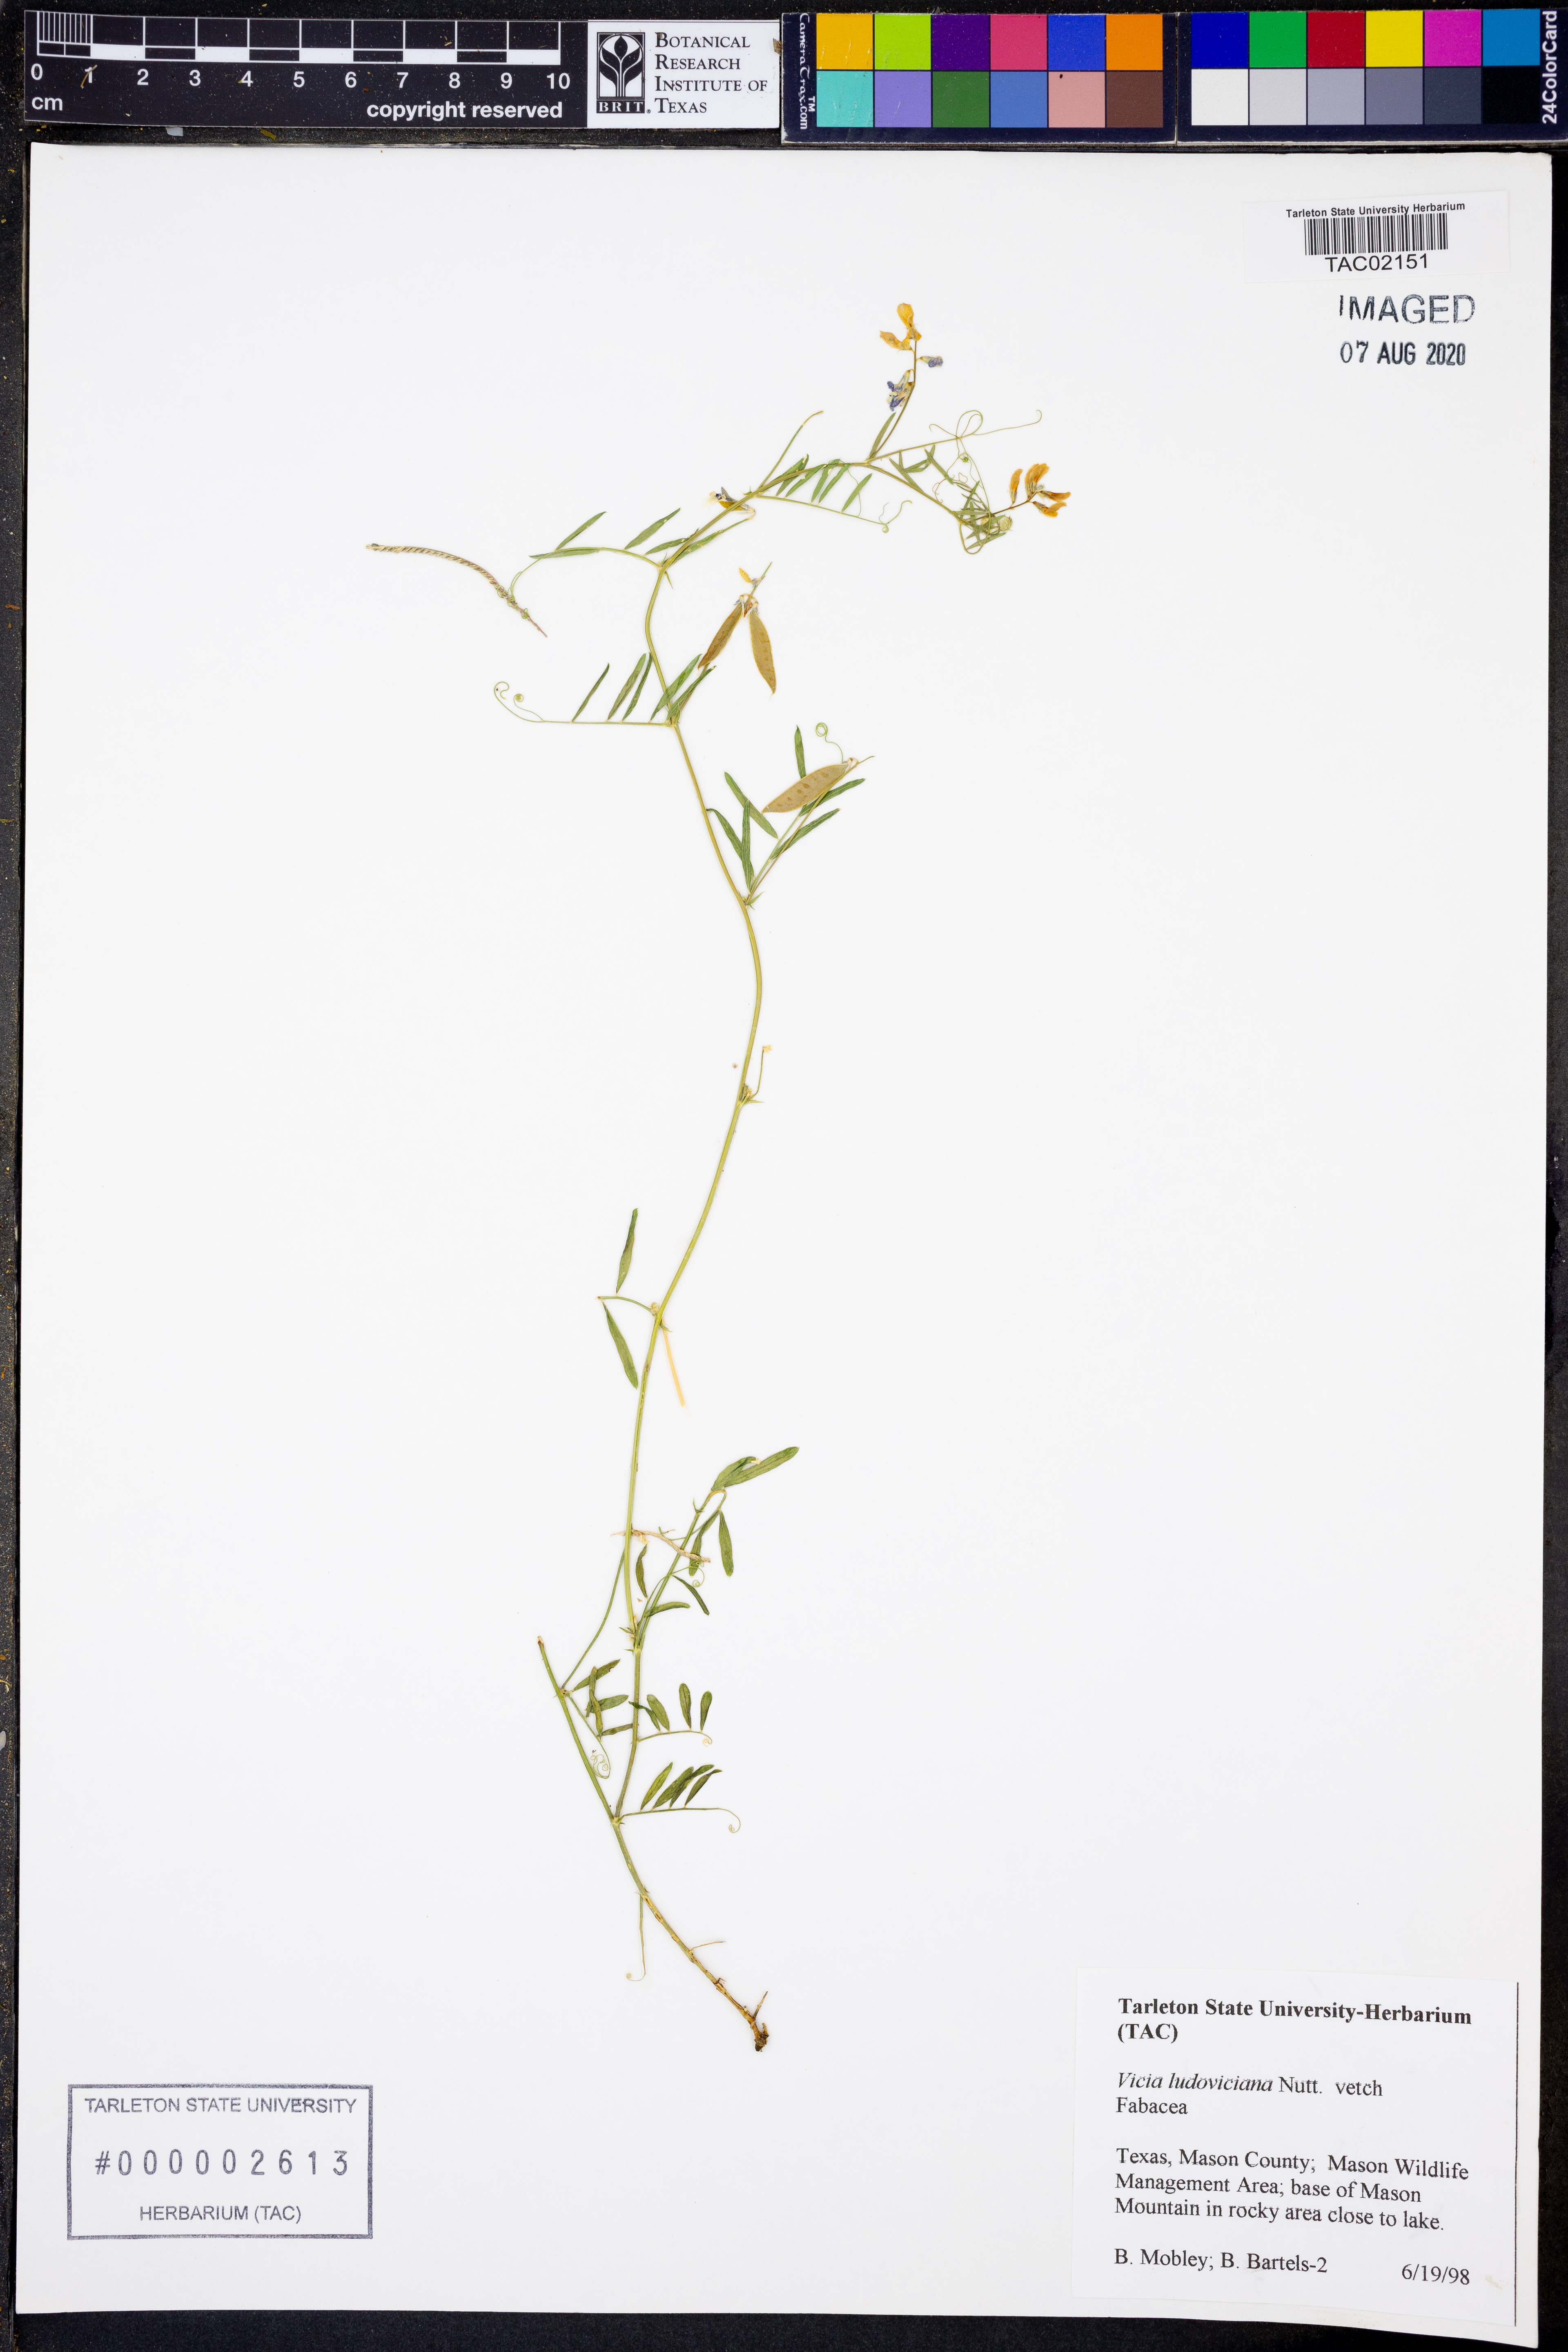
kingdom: Plantae
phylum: Tracheophyta
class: Magnoliopsida
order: Fabales
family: Fabaceae
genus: Vicia
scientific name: Vicia ludoviciana
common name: Louisiana vetch
